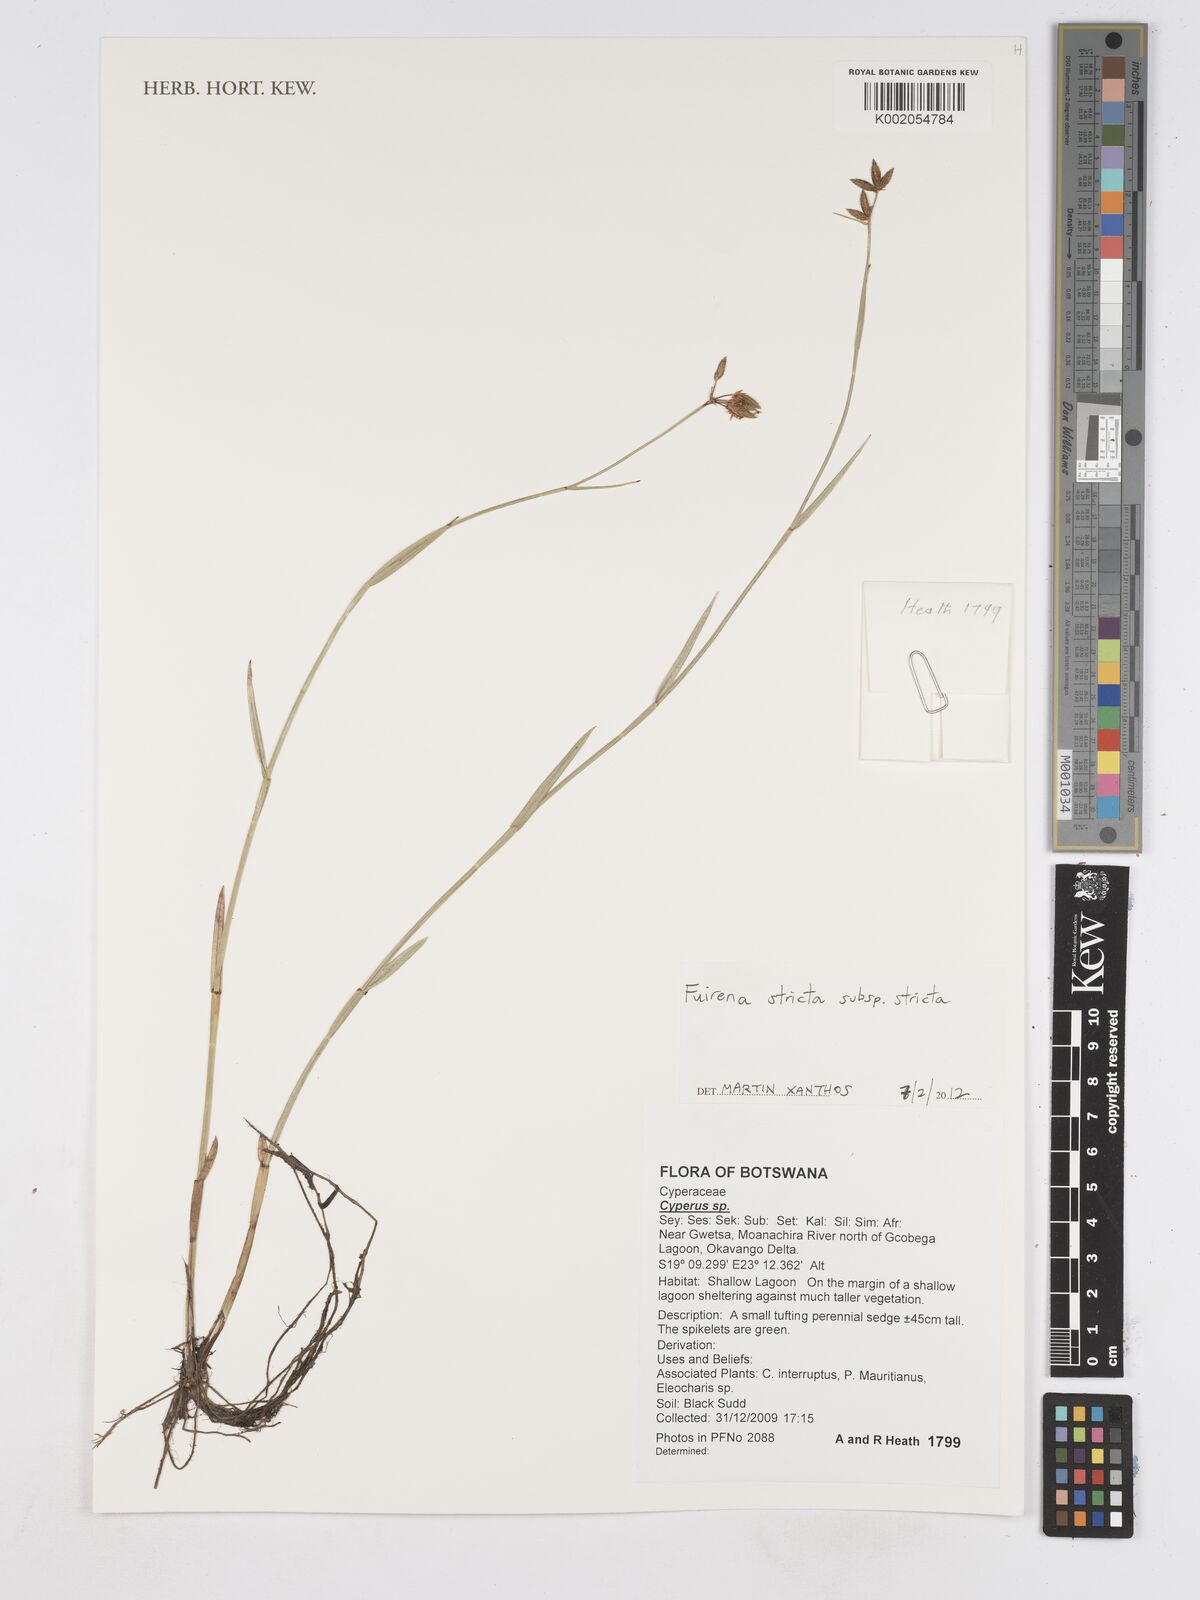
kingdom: Plantae
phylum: Tracheophyta
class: Liliopsida
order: Poales
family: Cyperaceae
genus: Fuirena
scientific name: Fuirena stricta
